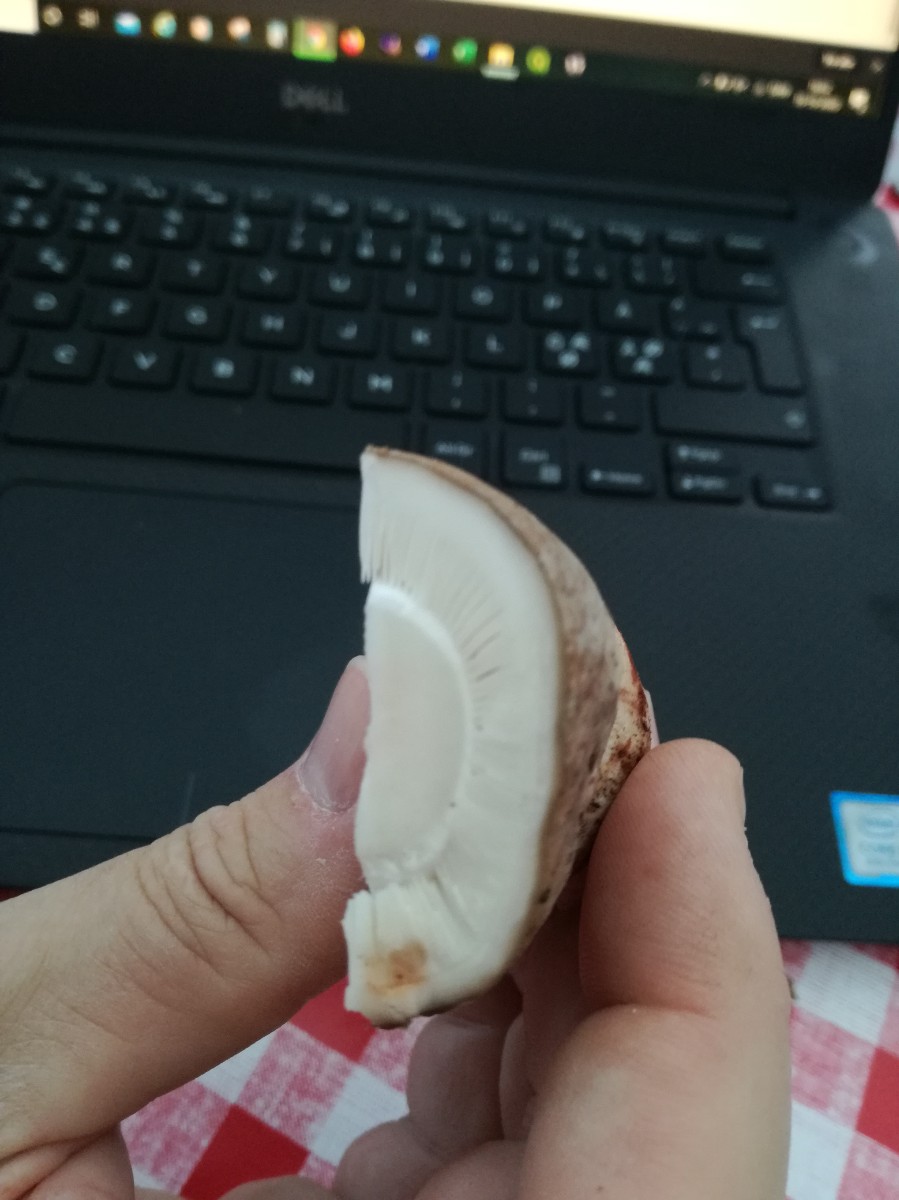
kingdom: Fungi
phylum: Basidiomycota
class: Agaricomycetes
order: Agaricales
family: Amanitaceae
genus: Amanita
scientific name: Amanita rubescens
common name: rødmende fluesvamp
